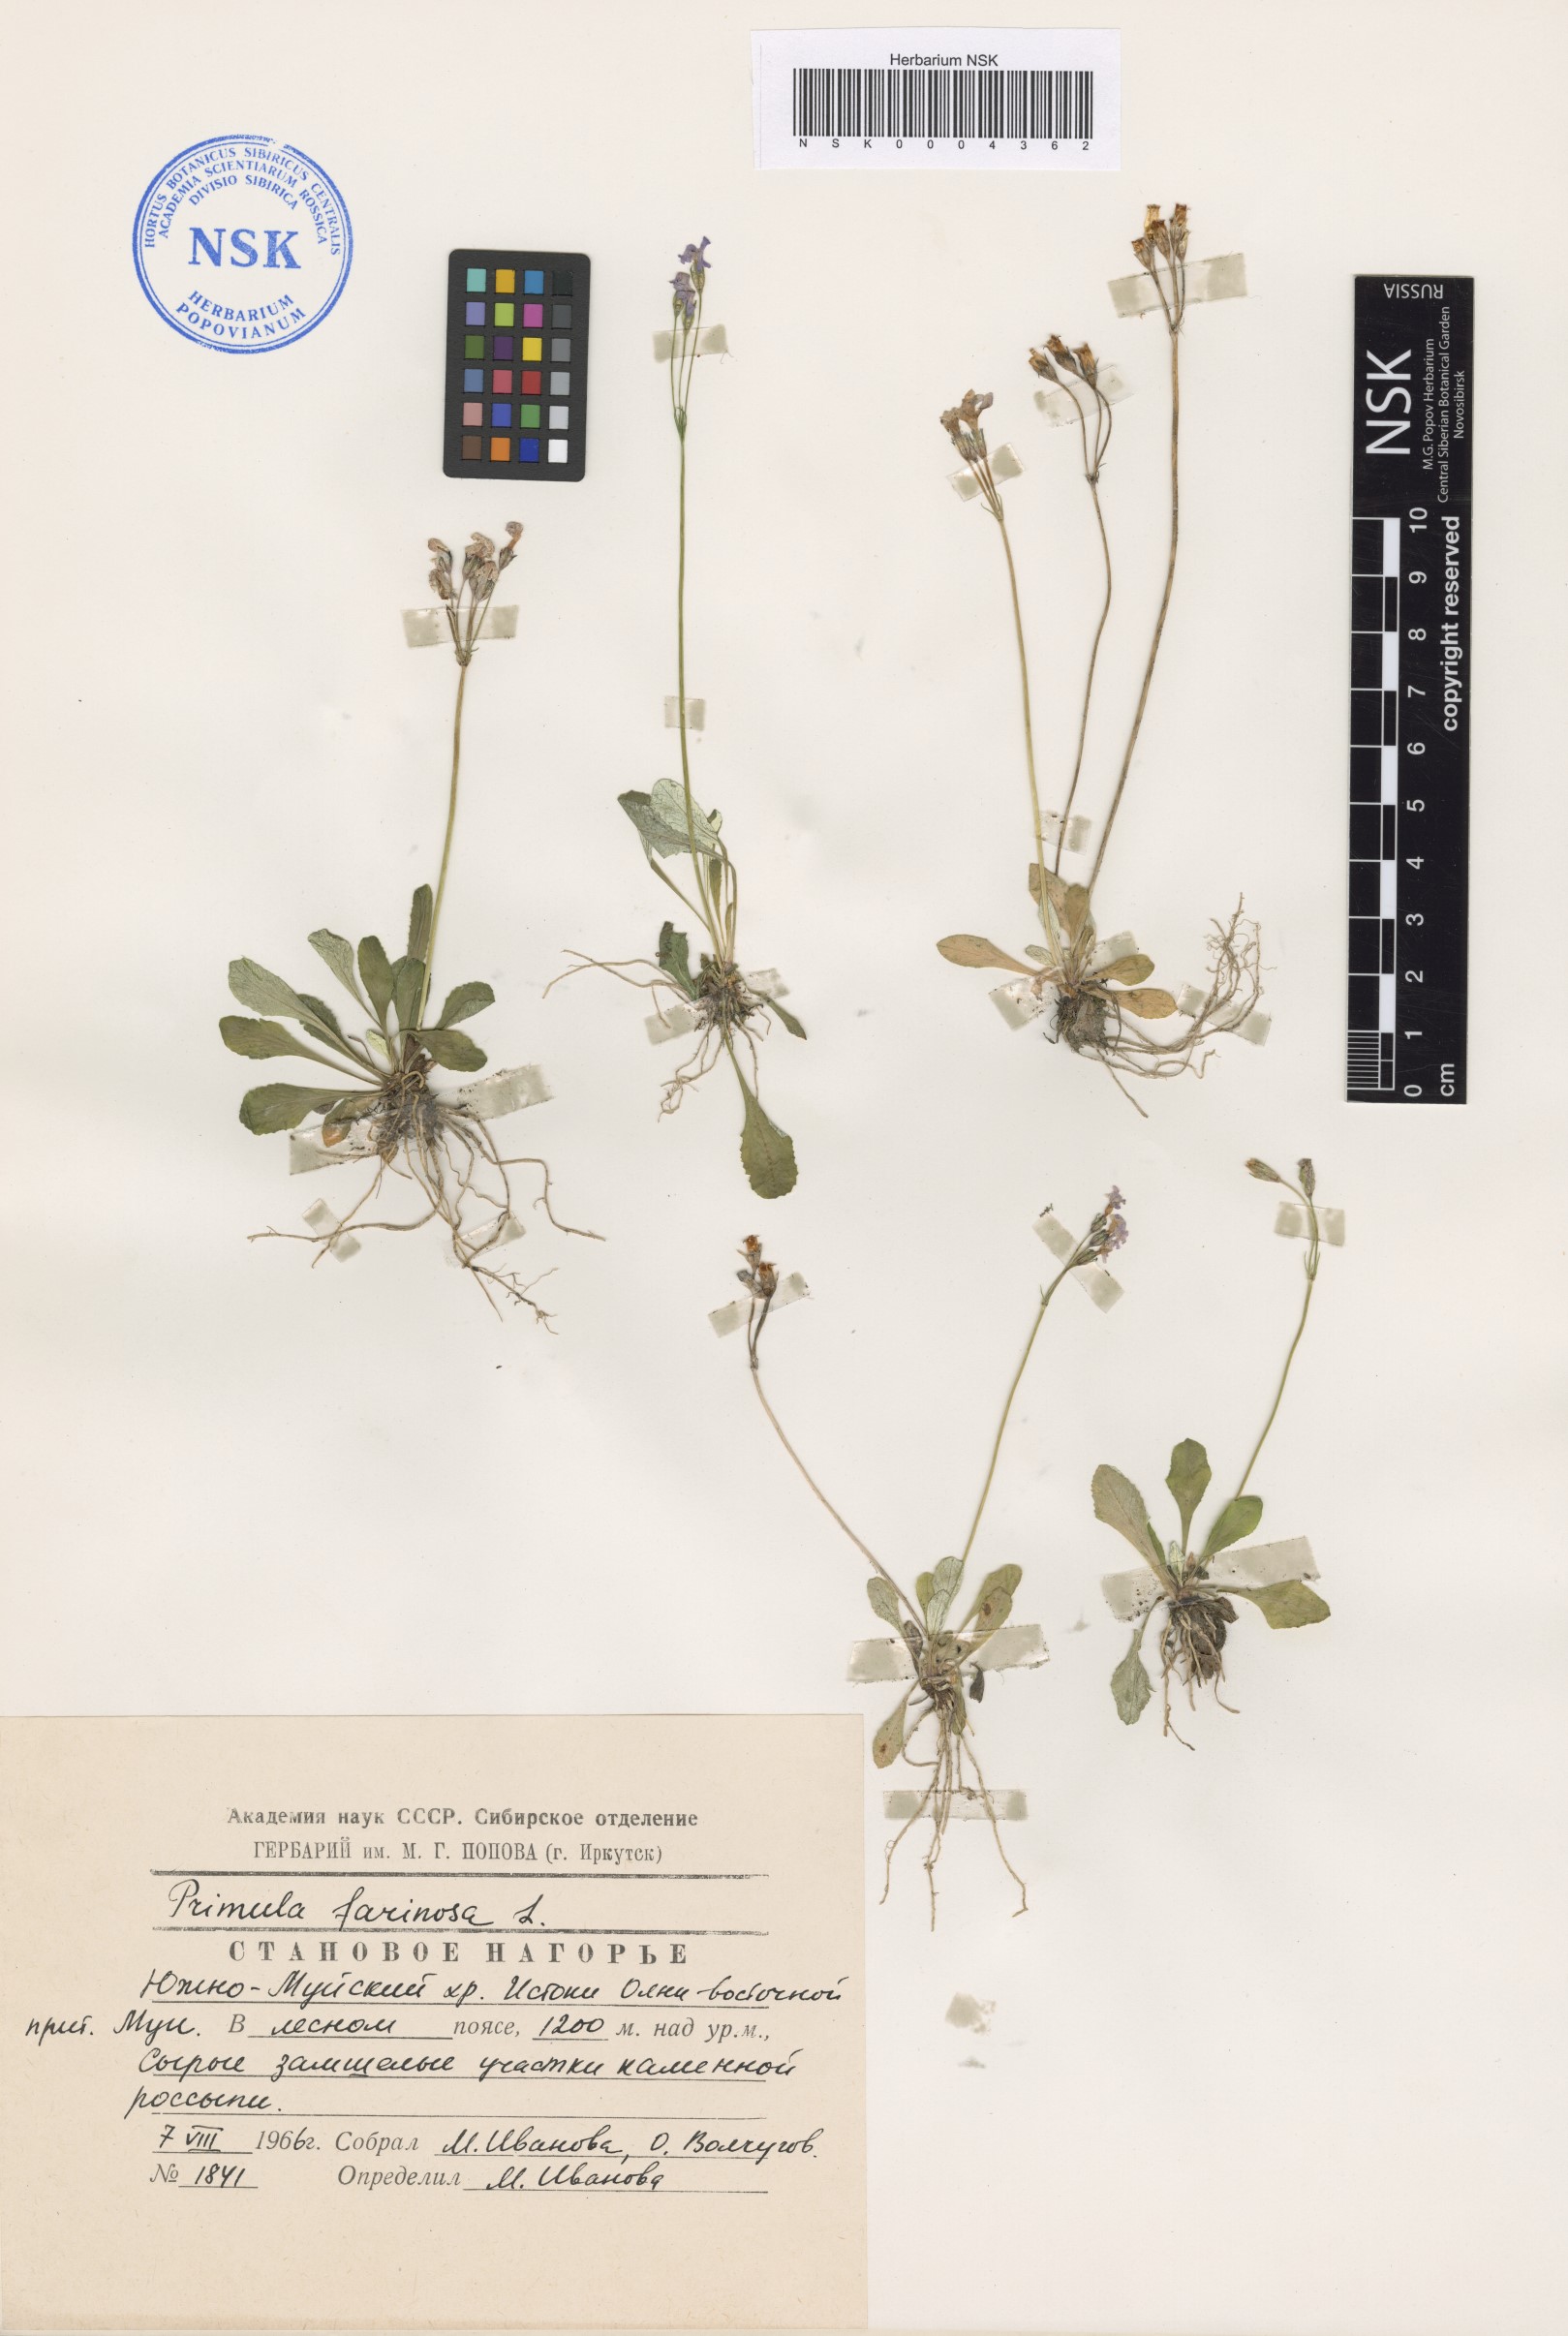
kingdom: Plantae
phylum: Tracheophyta
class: Magnoliopsida
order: Ericales
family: Primulaceae
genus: Primula
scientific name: Primula farinosa
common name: Bird's-eye primrose
